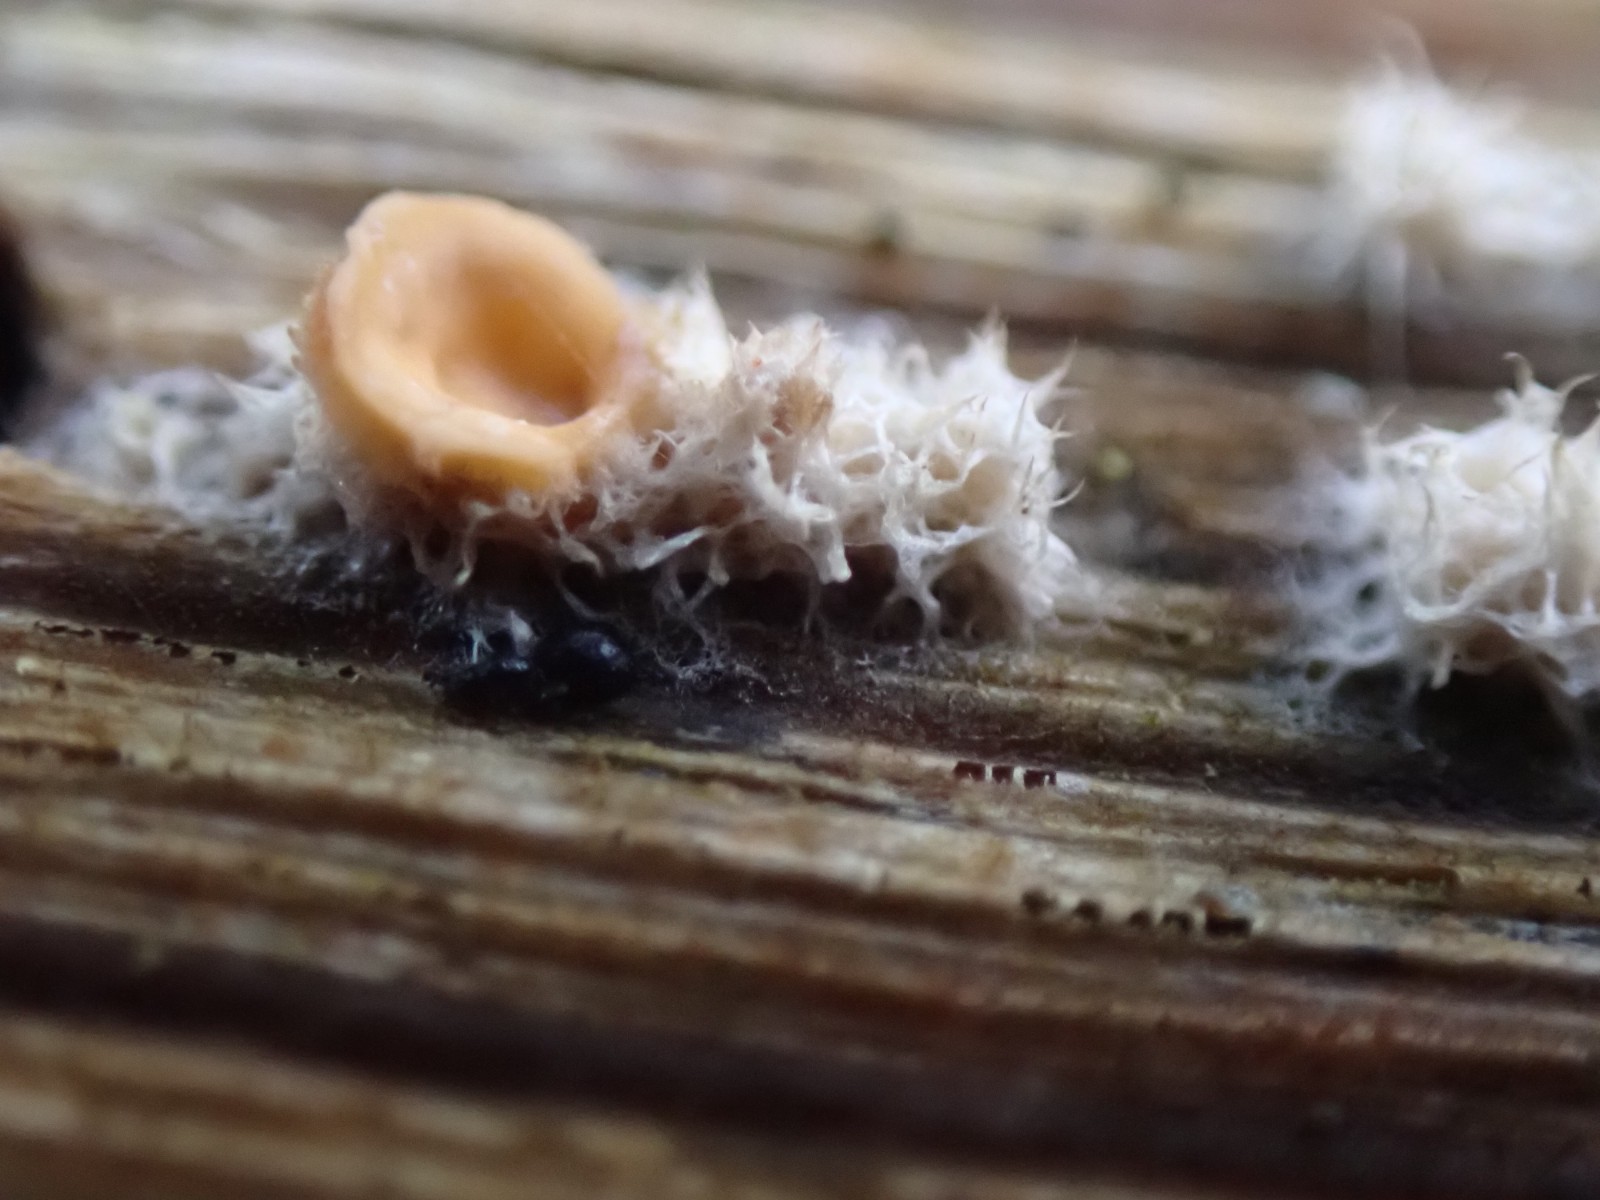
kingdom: Fungi
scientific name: Fungi
